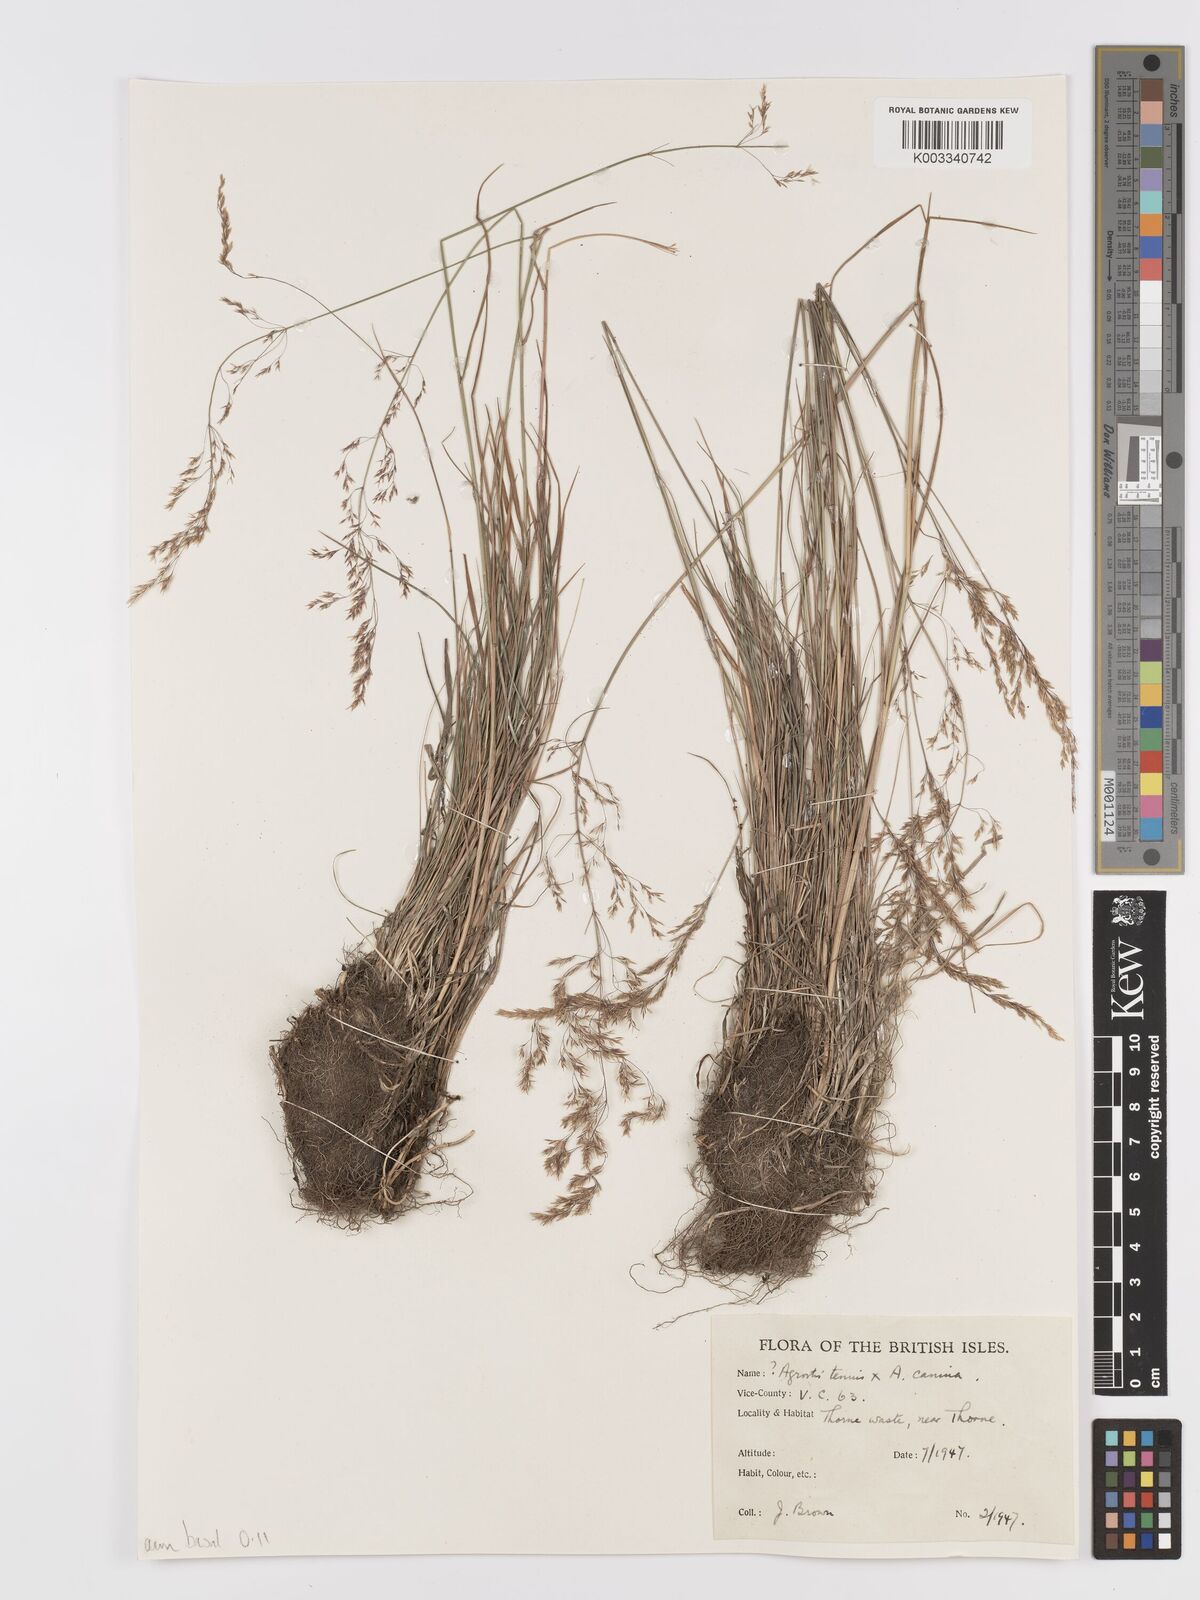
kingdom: Plantae
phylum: Tracheophyta
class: Liliopsida
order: Poales
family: Poaceae
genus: Agrostis
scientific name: Agrostis capillaris
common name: Colonial bentgrass
